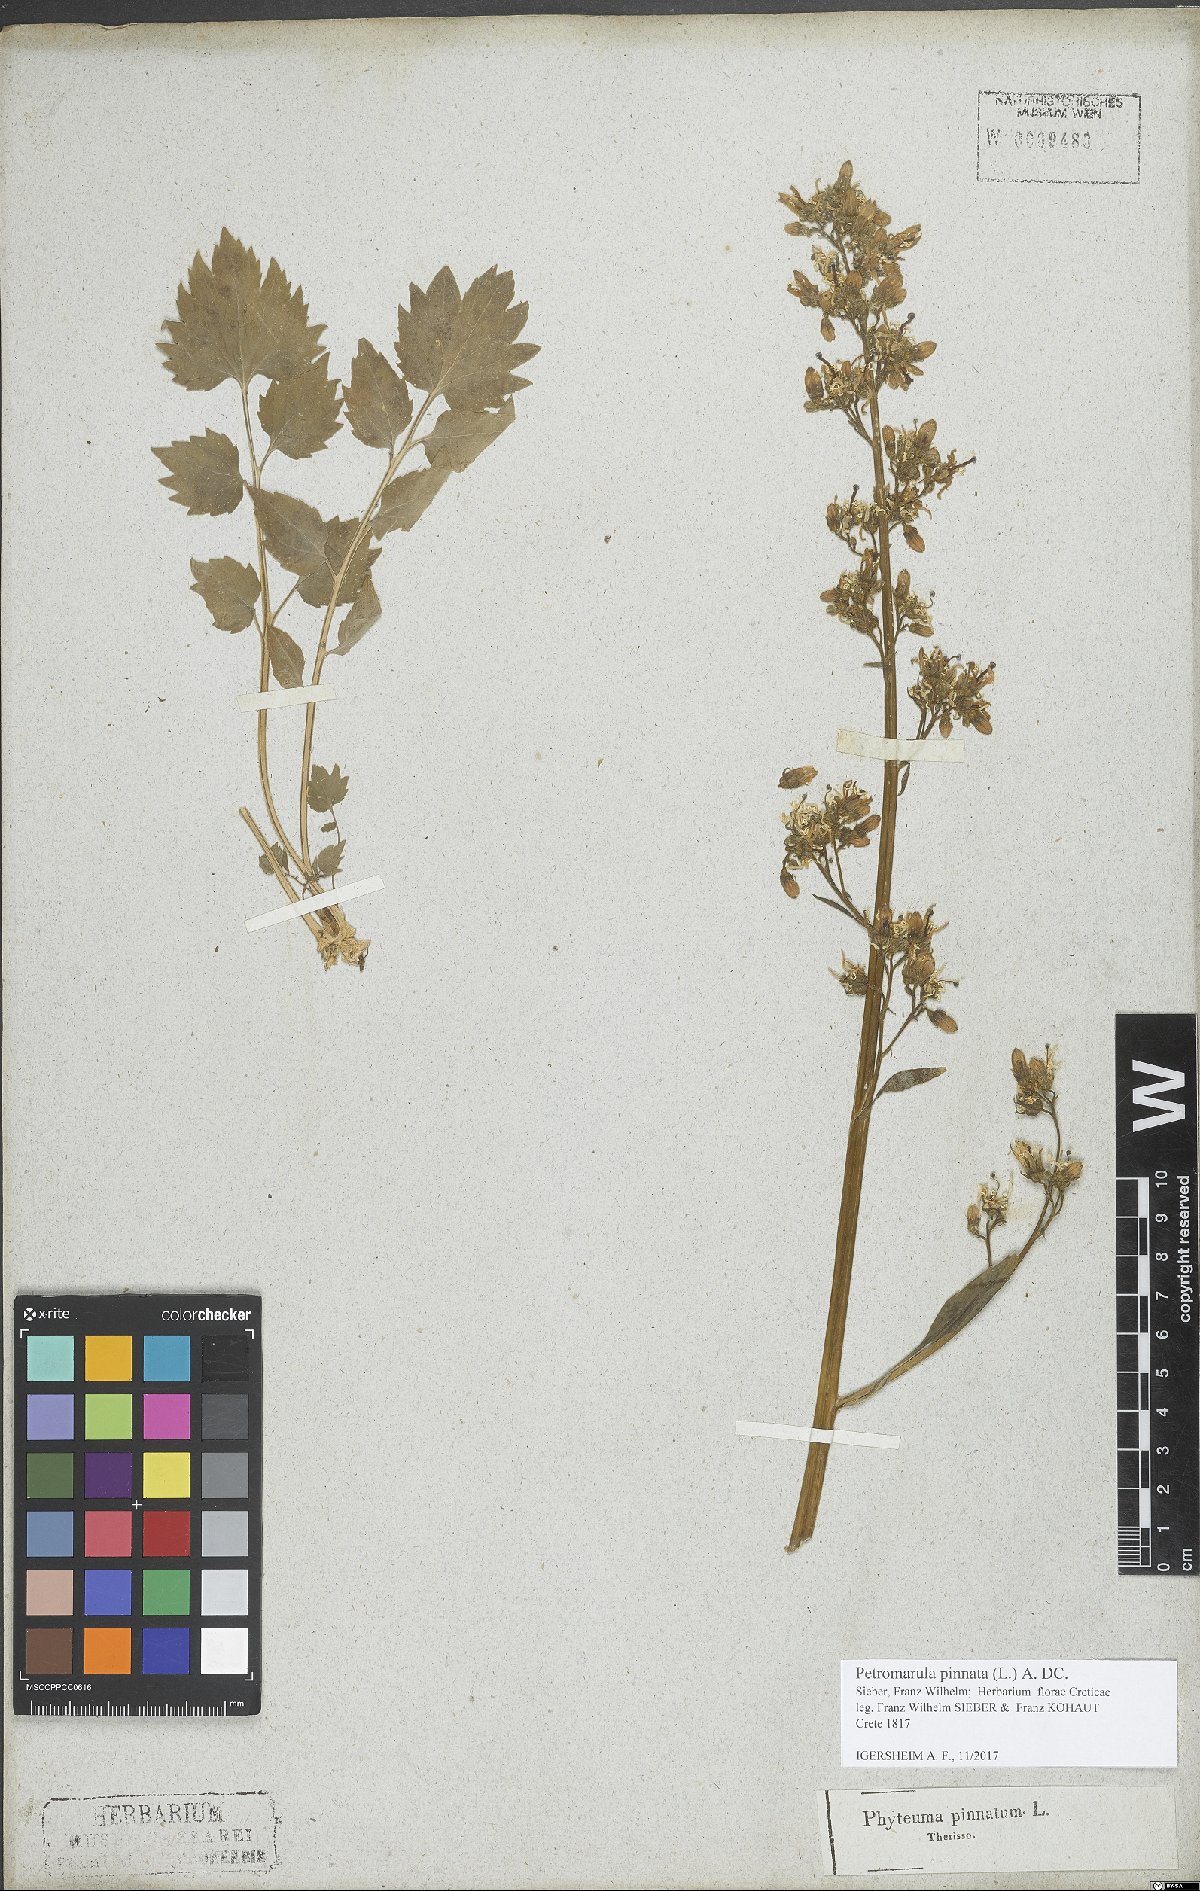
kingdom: Plantae
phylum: Tracheophyta
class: Magnoliopsida
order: Asterales
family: Campanulaceae
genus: Petromarula
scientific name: Petromarula pinnata
